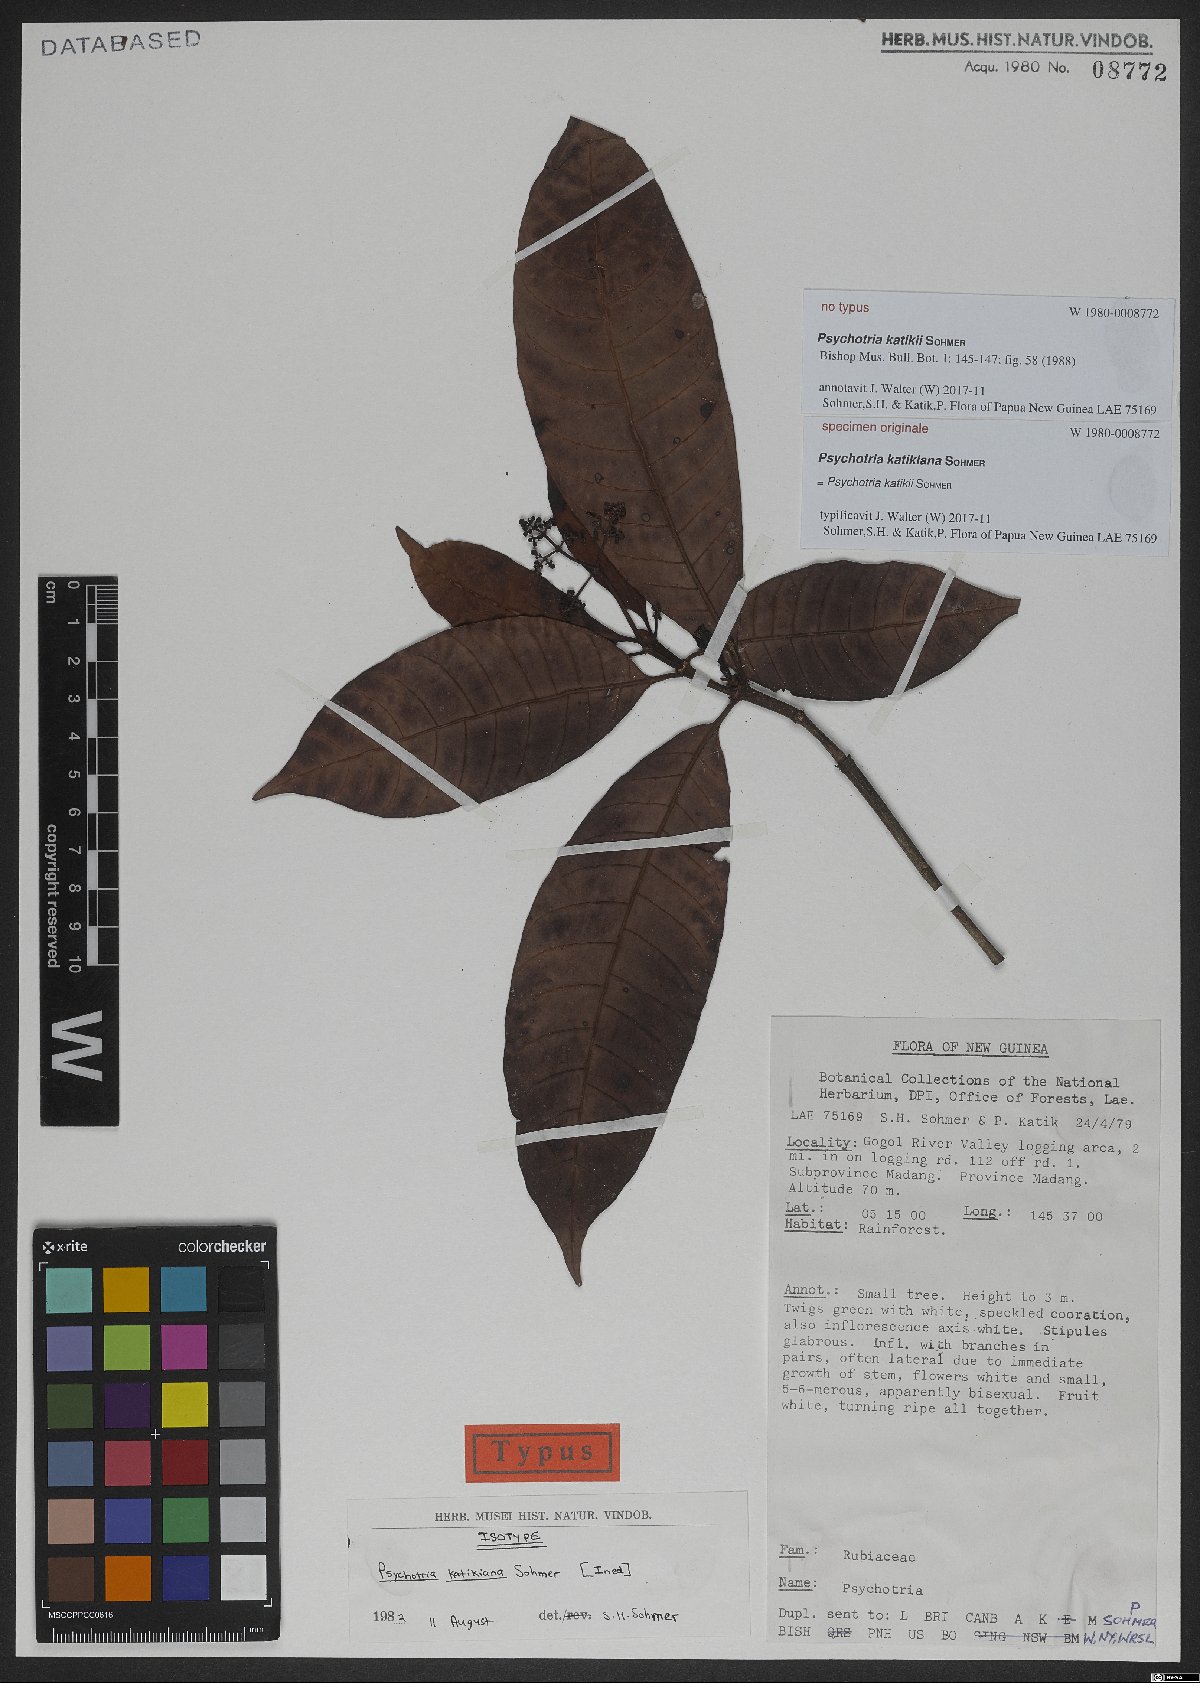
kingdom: Plantae
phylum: Tracheophyta
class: Magnoliopsida
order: Gentianales
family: Rubiaceae
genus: Psychotria
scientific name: Psychotria katikii
